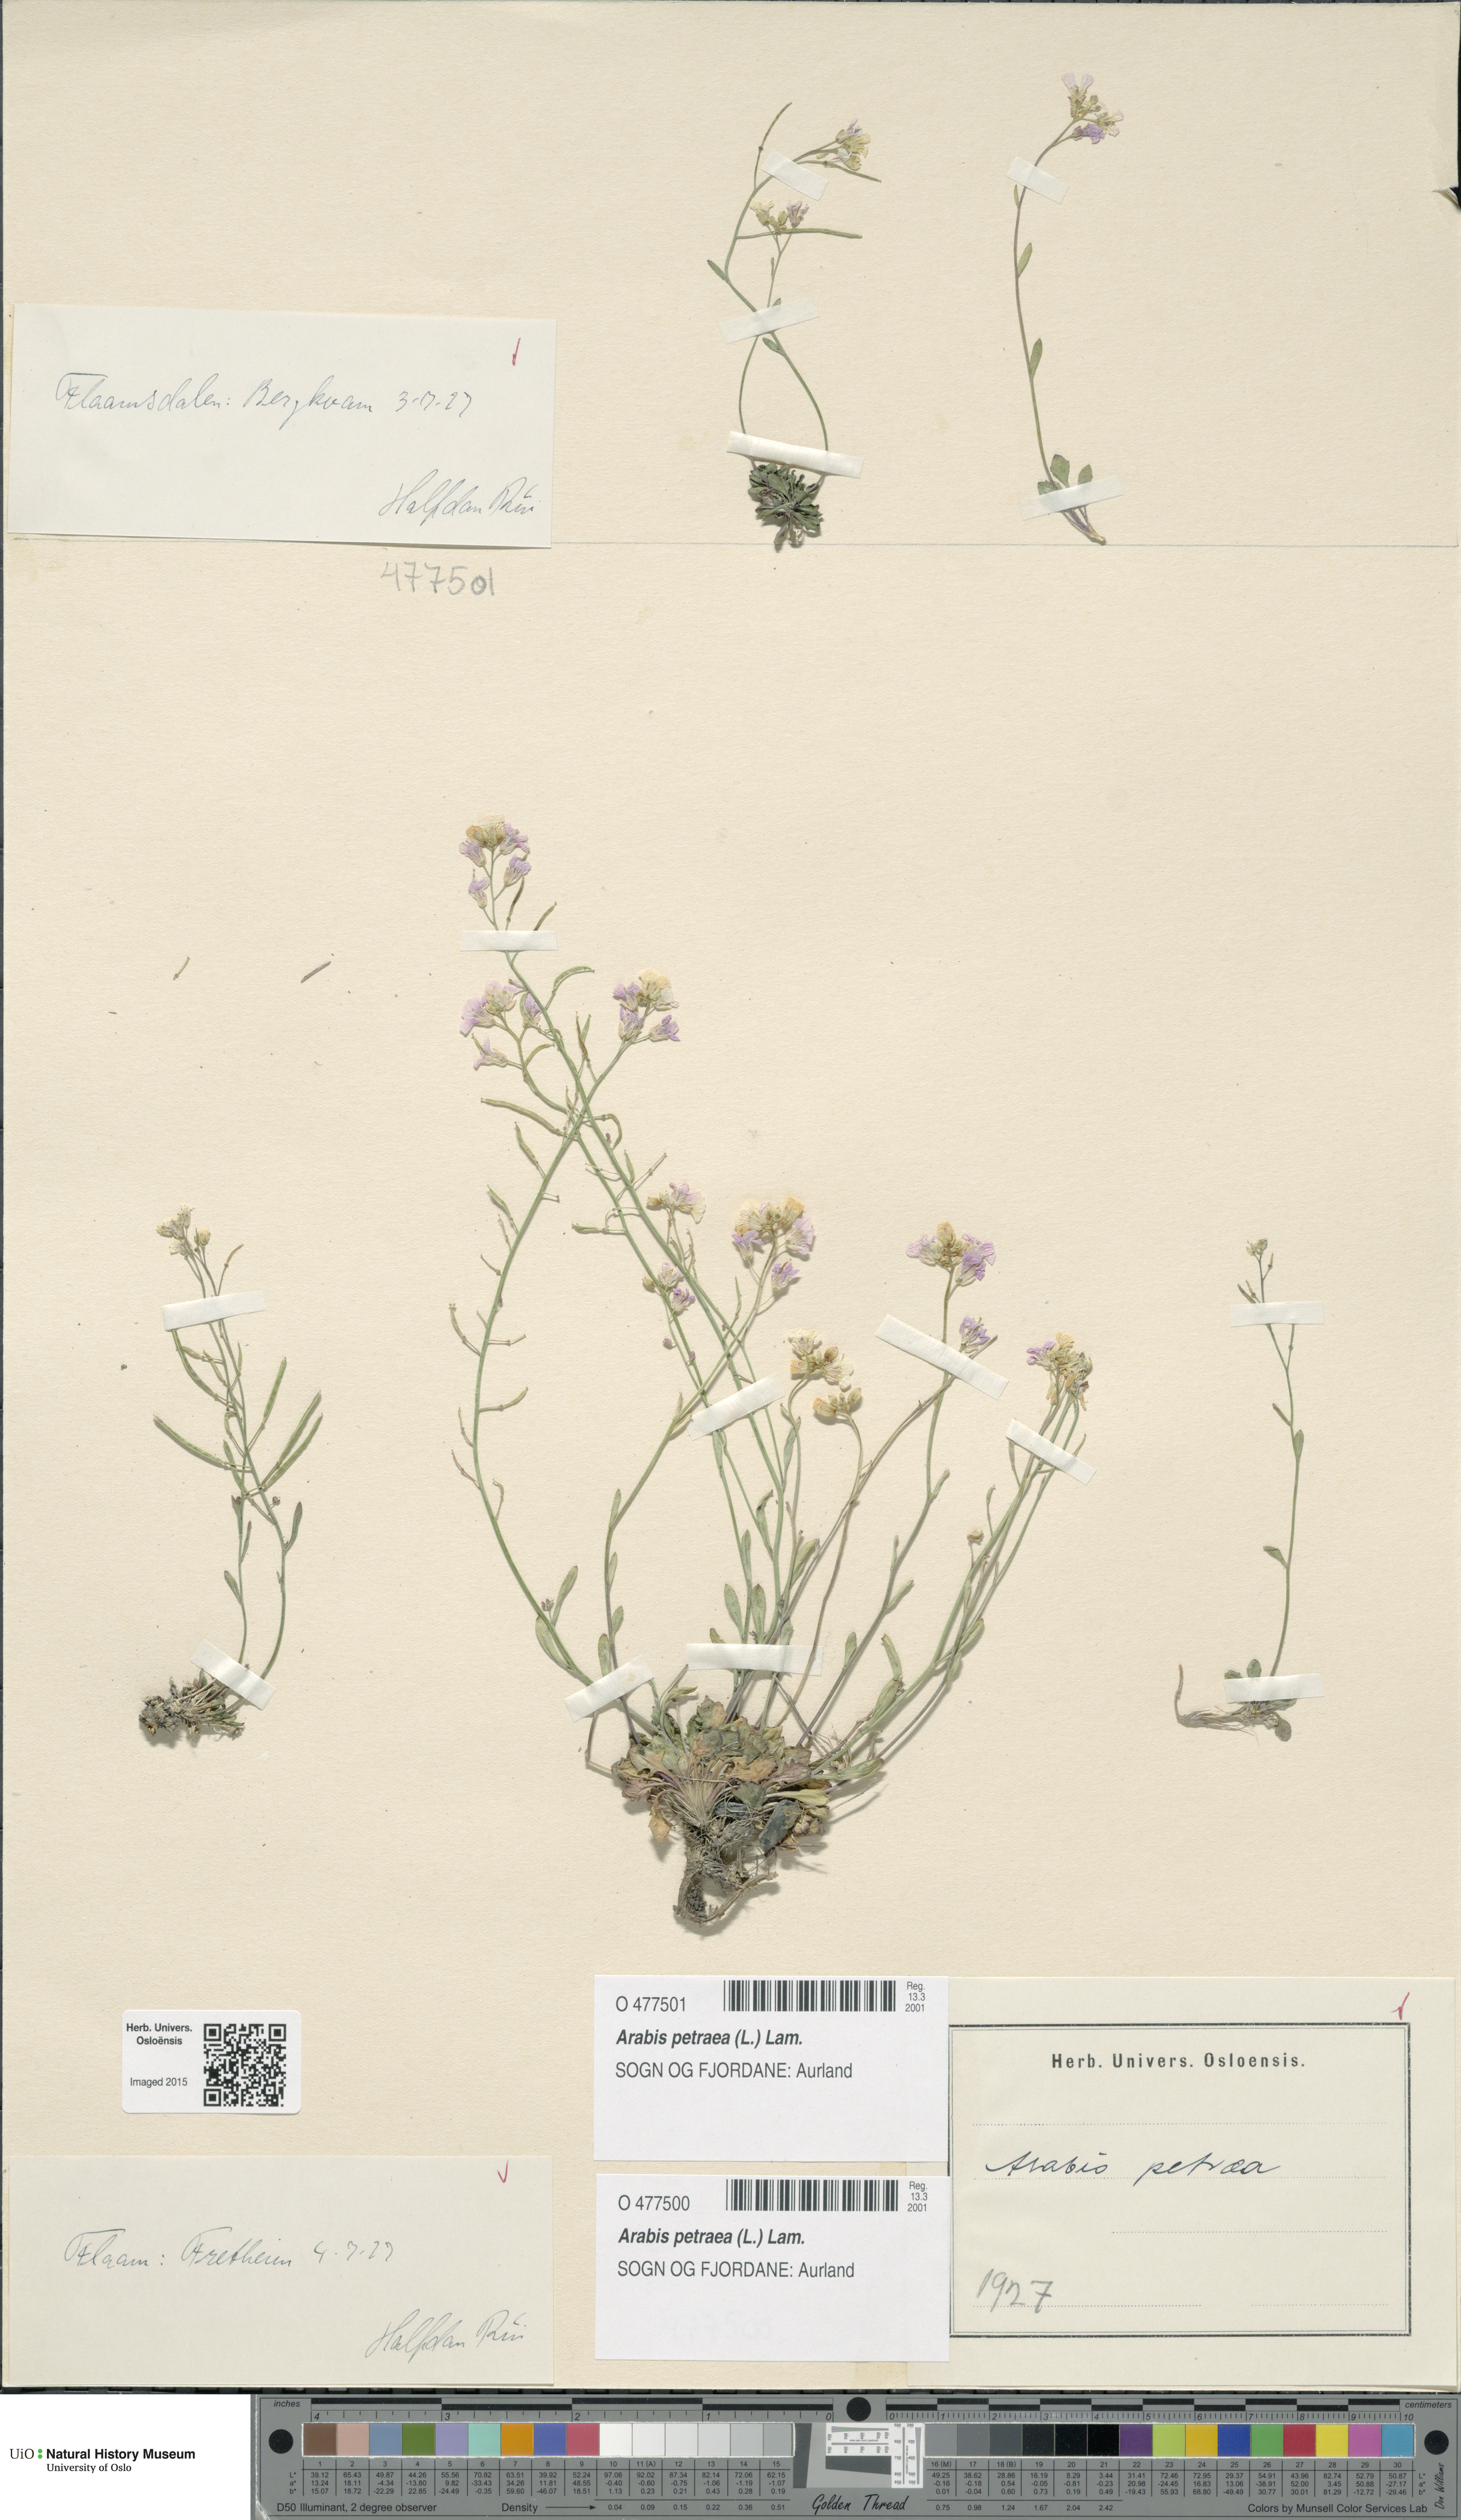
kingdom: Plantae
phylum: Tracheophyta
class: Magnoliopsida
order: Brassicales
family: Brassicaceae
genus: Arabidopsis
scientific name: Arabidopsis petraea
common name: Northern rock-cress
